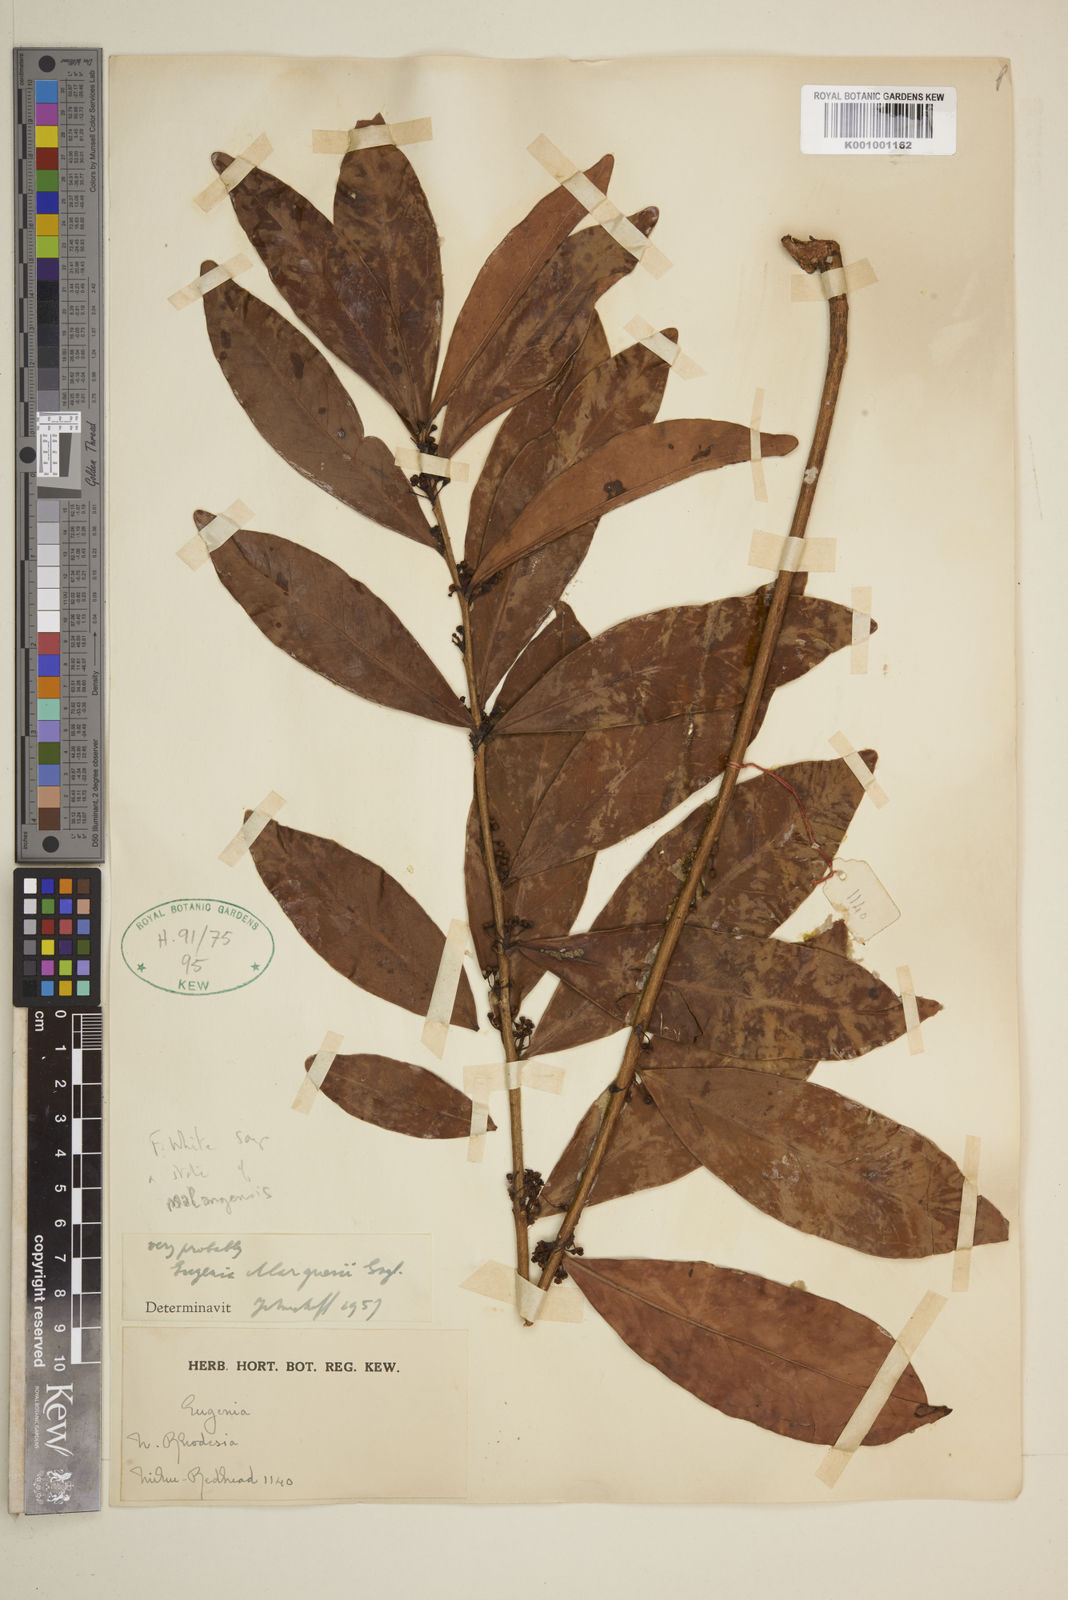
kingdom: Plantae
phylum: Tracheophyta
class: Magnoliopsida
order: Myrtales
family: Myrtaceae
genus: Eugenia
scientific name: Eugenia malangensis
